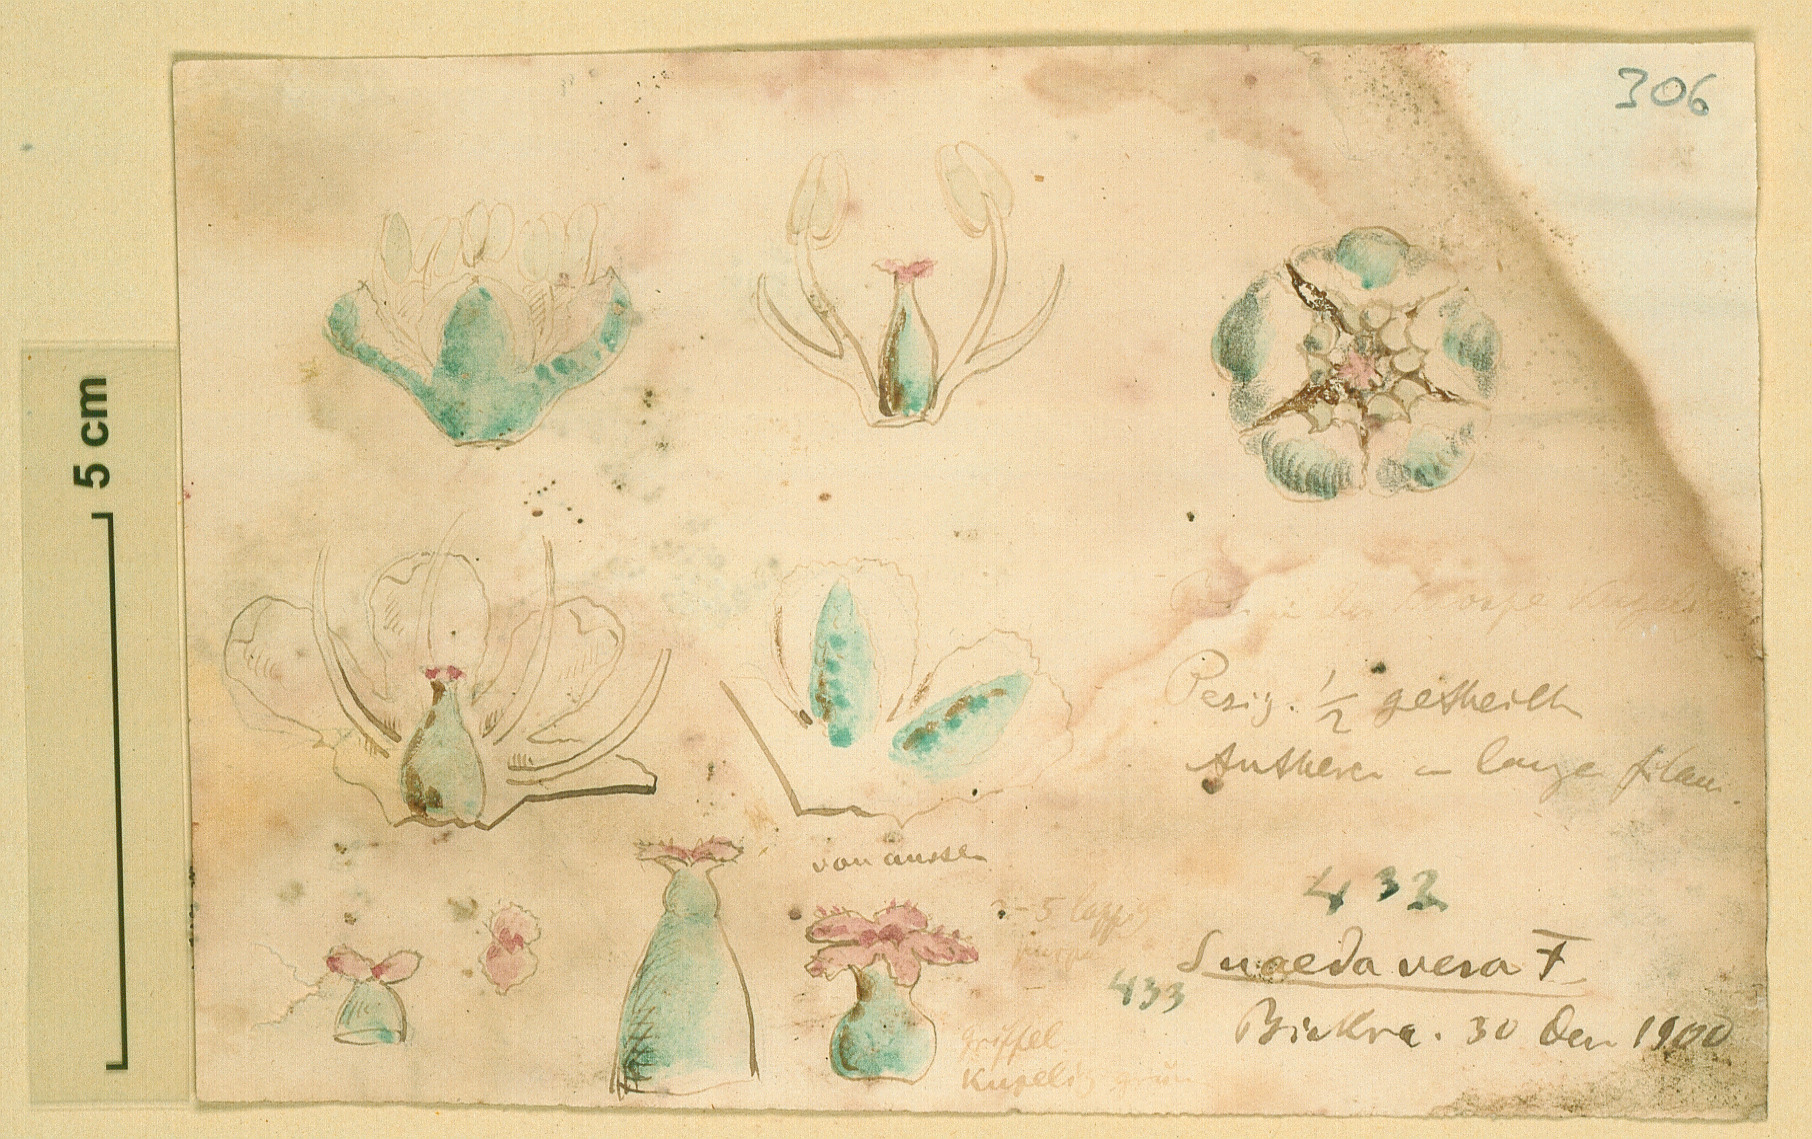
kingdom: Plantae
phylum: Tracheophyta
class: Magnoliopsida
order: Caryophyllales
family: Amaranthaceae
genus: Suaeda
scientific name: Suaeda vera
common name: Shrubby sea-blite
